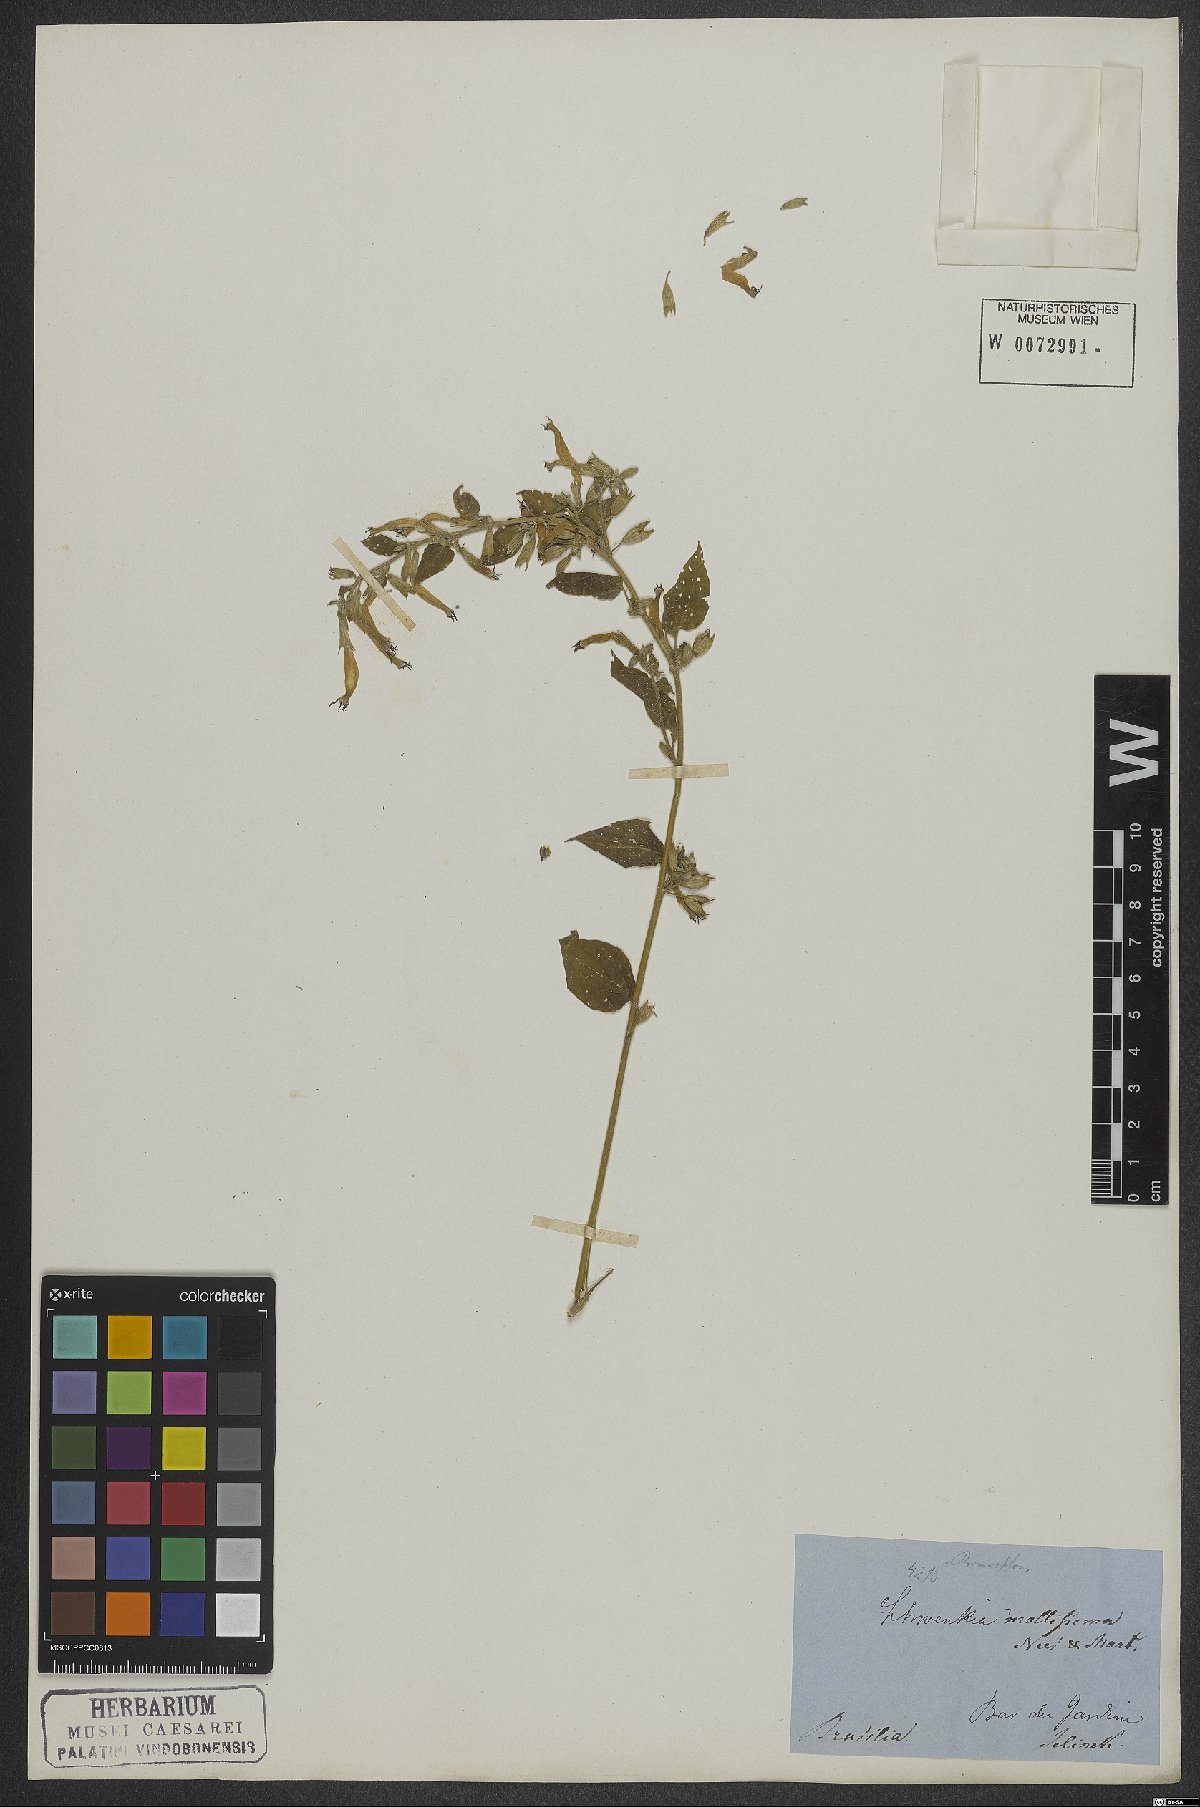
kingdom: Plantae
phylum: Tracheophyta
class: Magnoliopsida
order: Solanales
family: Solanaceae
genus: Schwenckia
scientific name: Schwenckia paniculata
